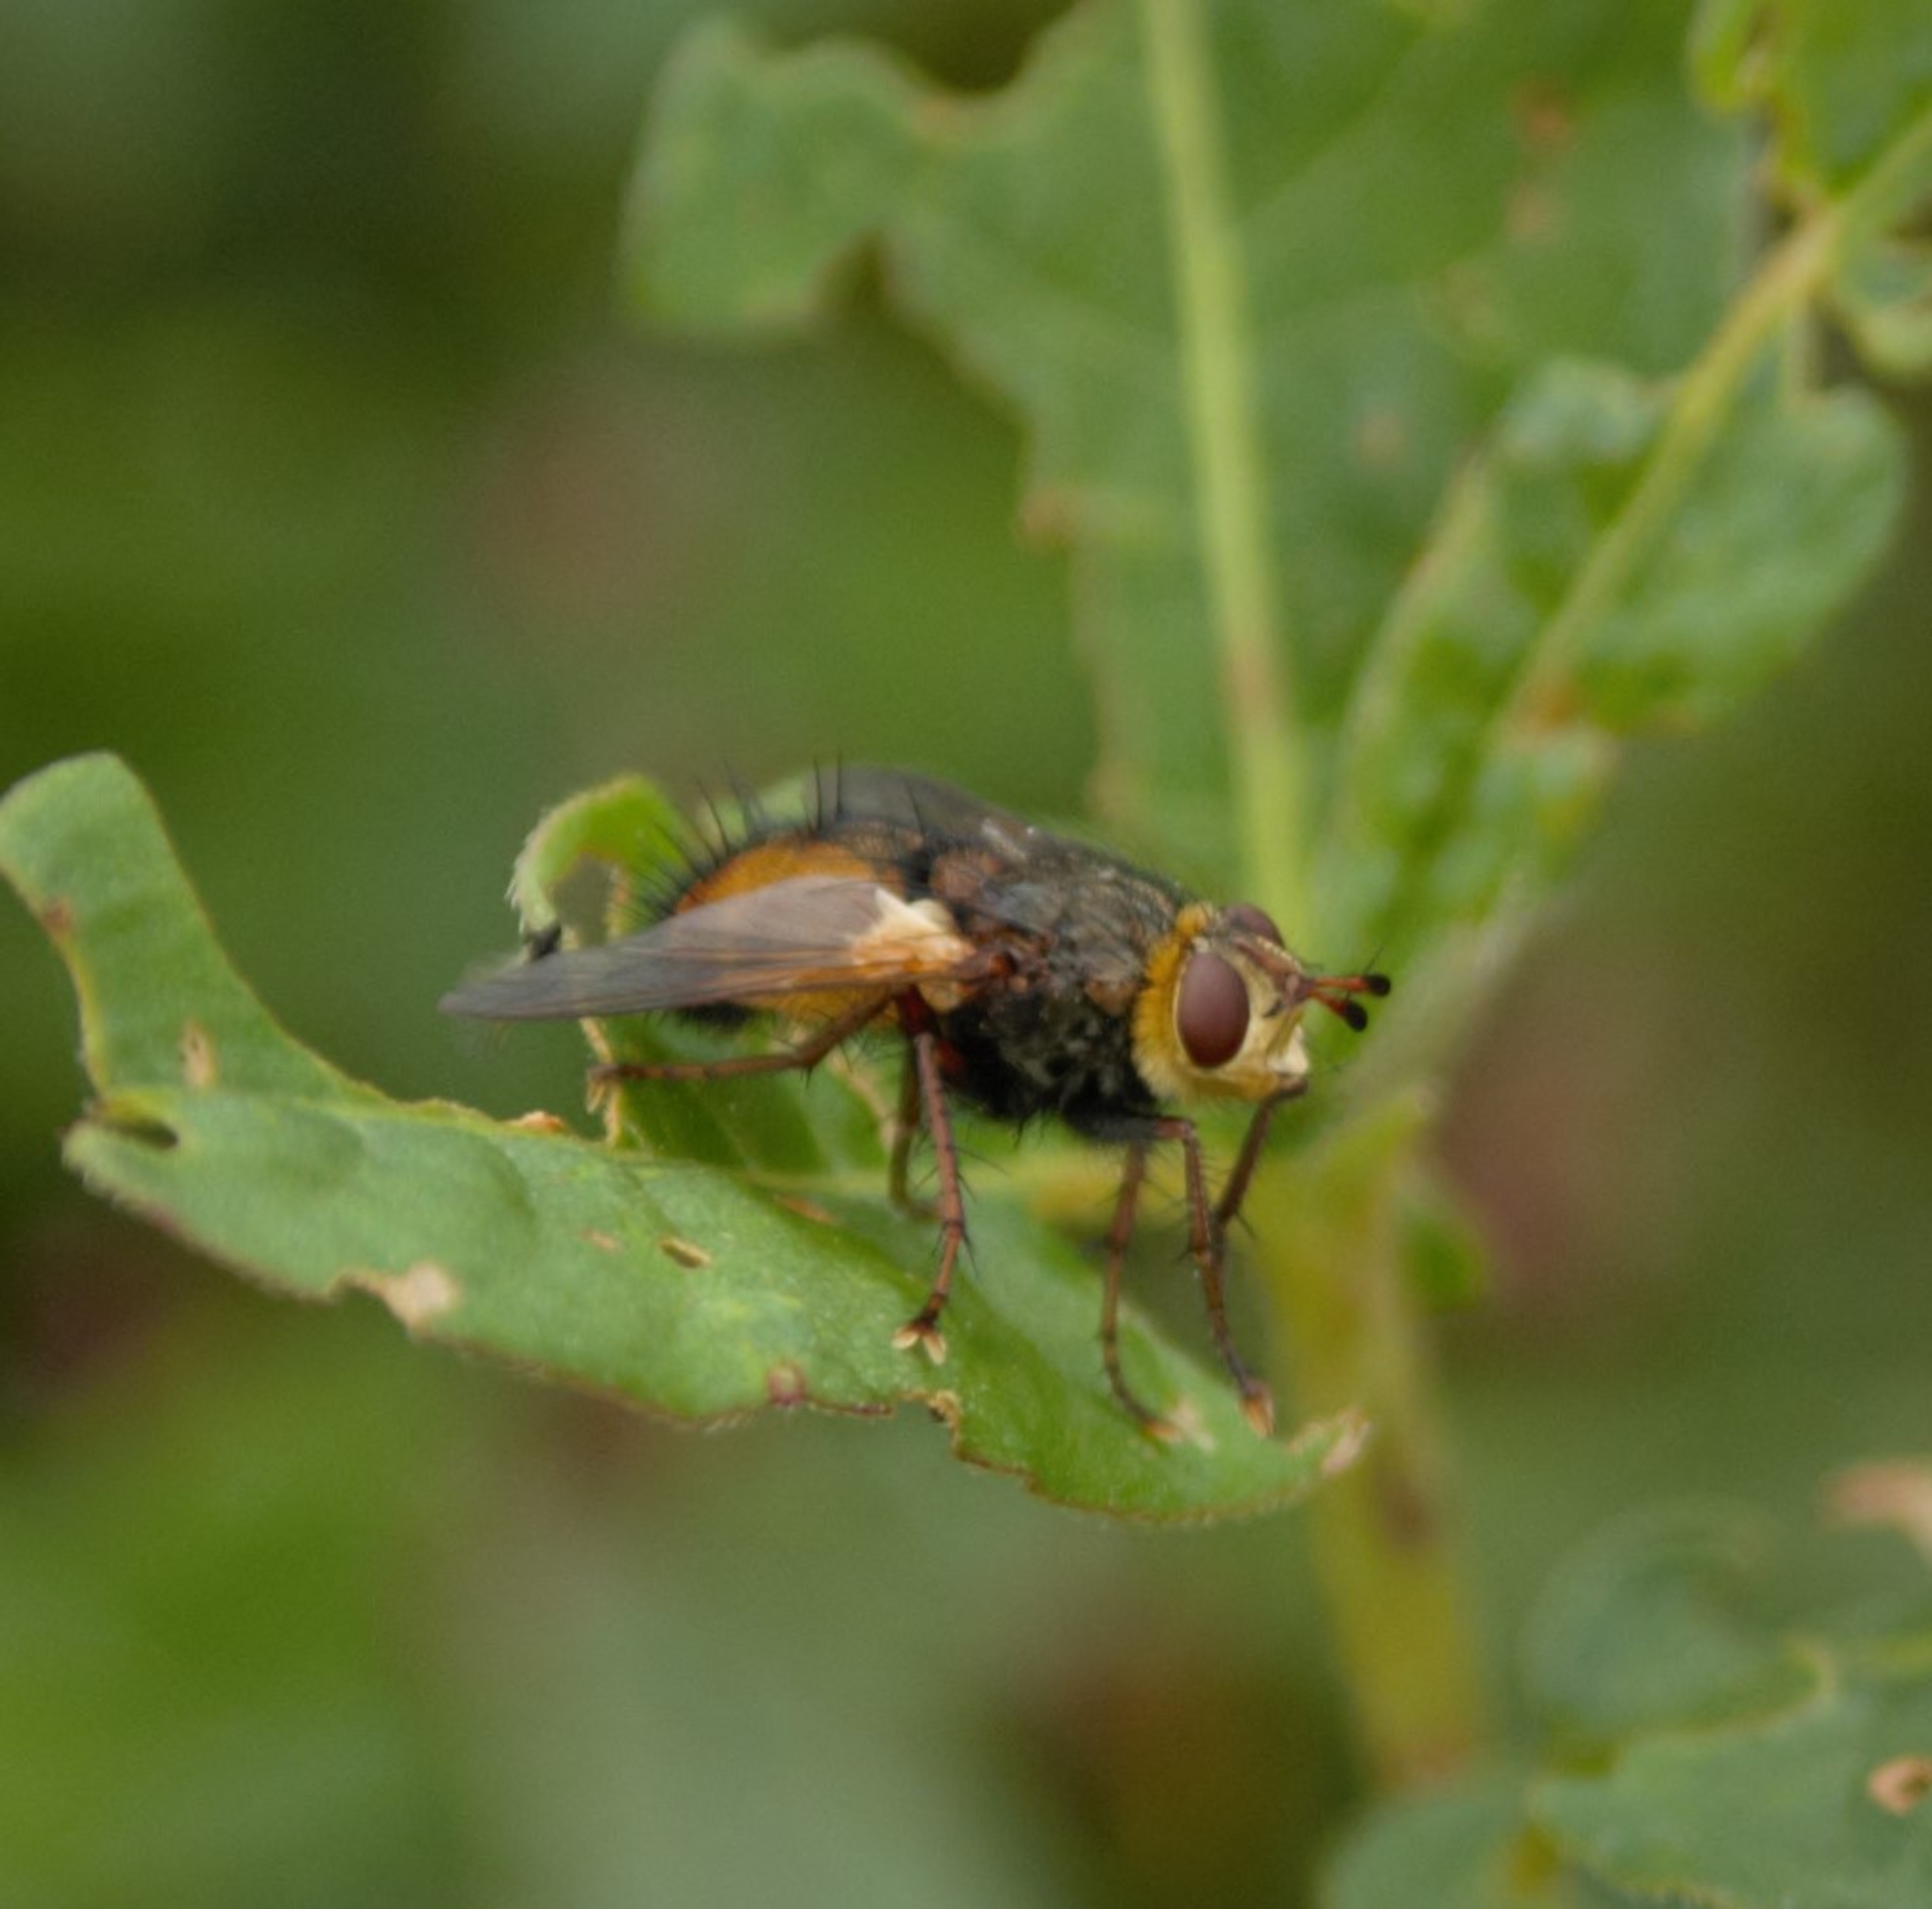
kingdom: Animalia
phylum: Arthropoda
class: Insecta
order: Diptera
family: Tachinidae
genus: Tachina
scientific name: Tachina fera
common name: Mellemfluen oskar
